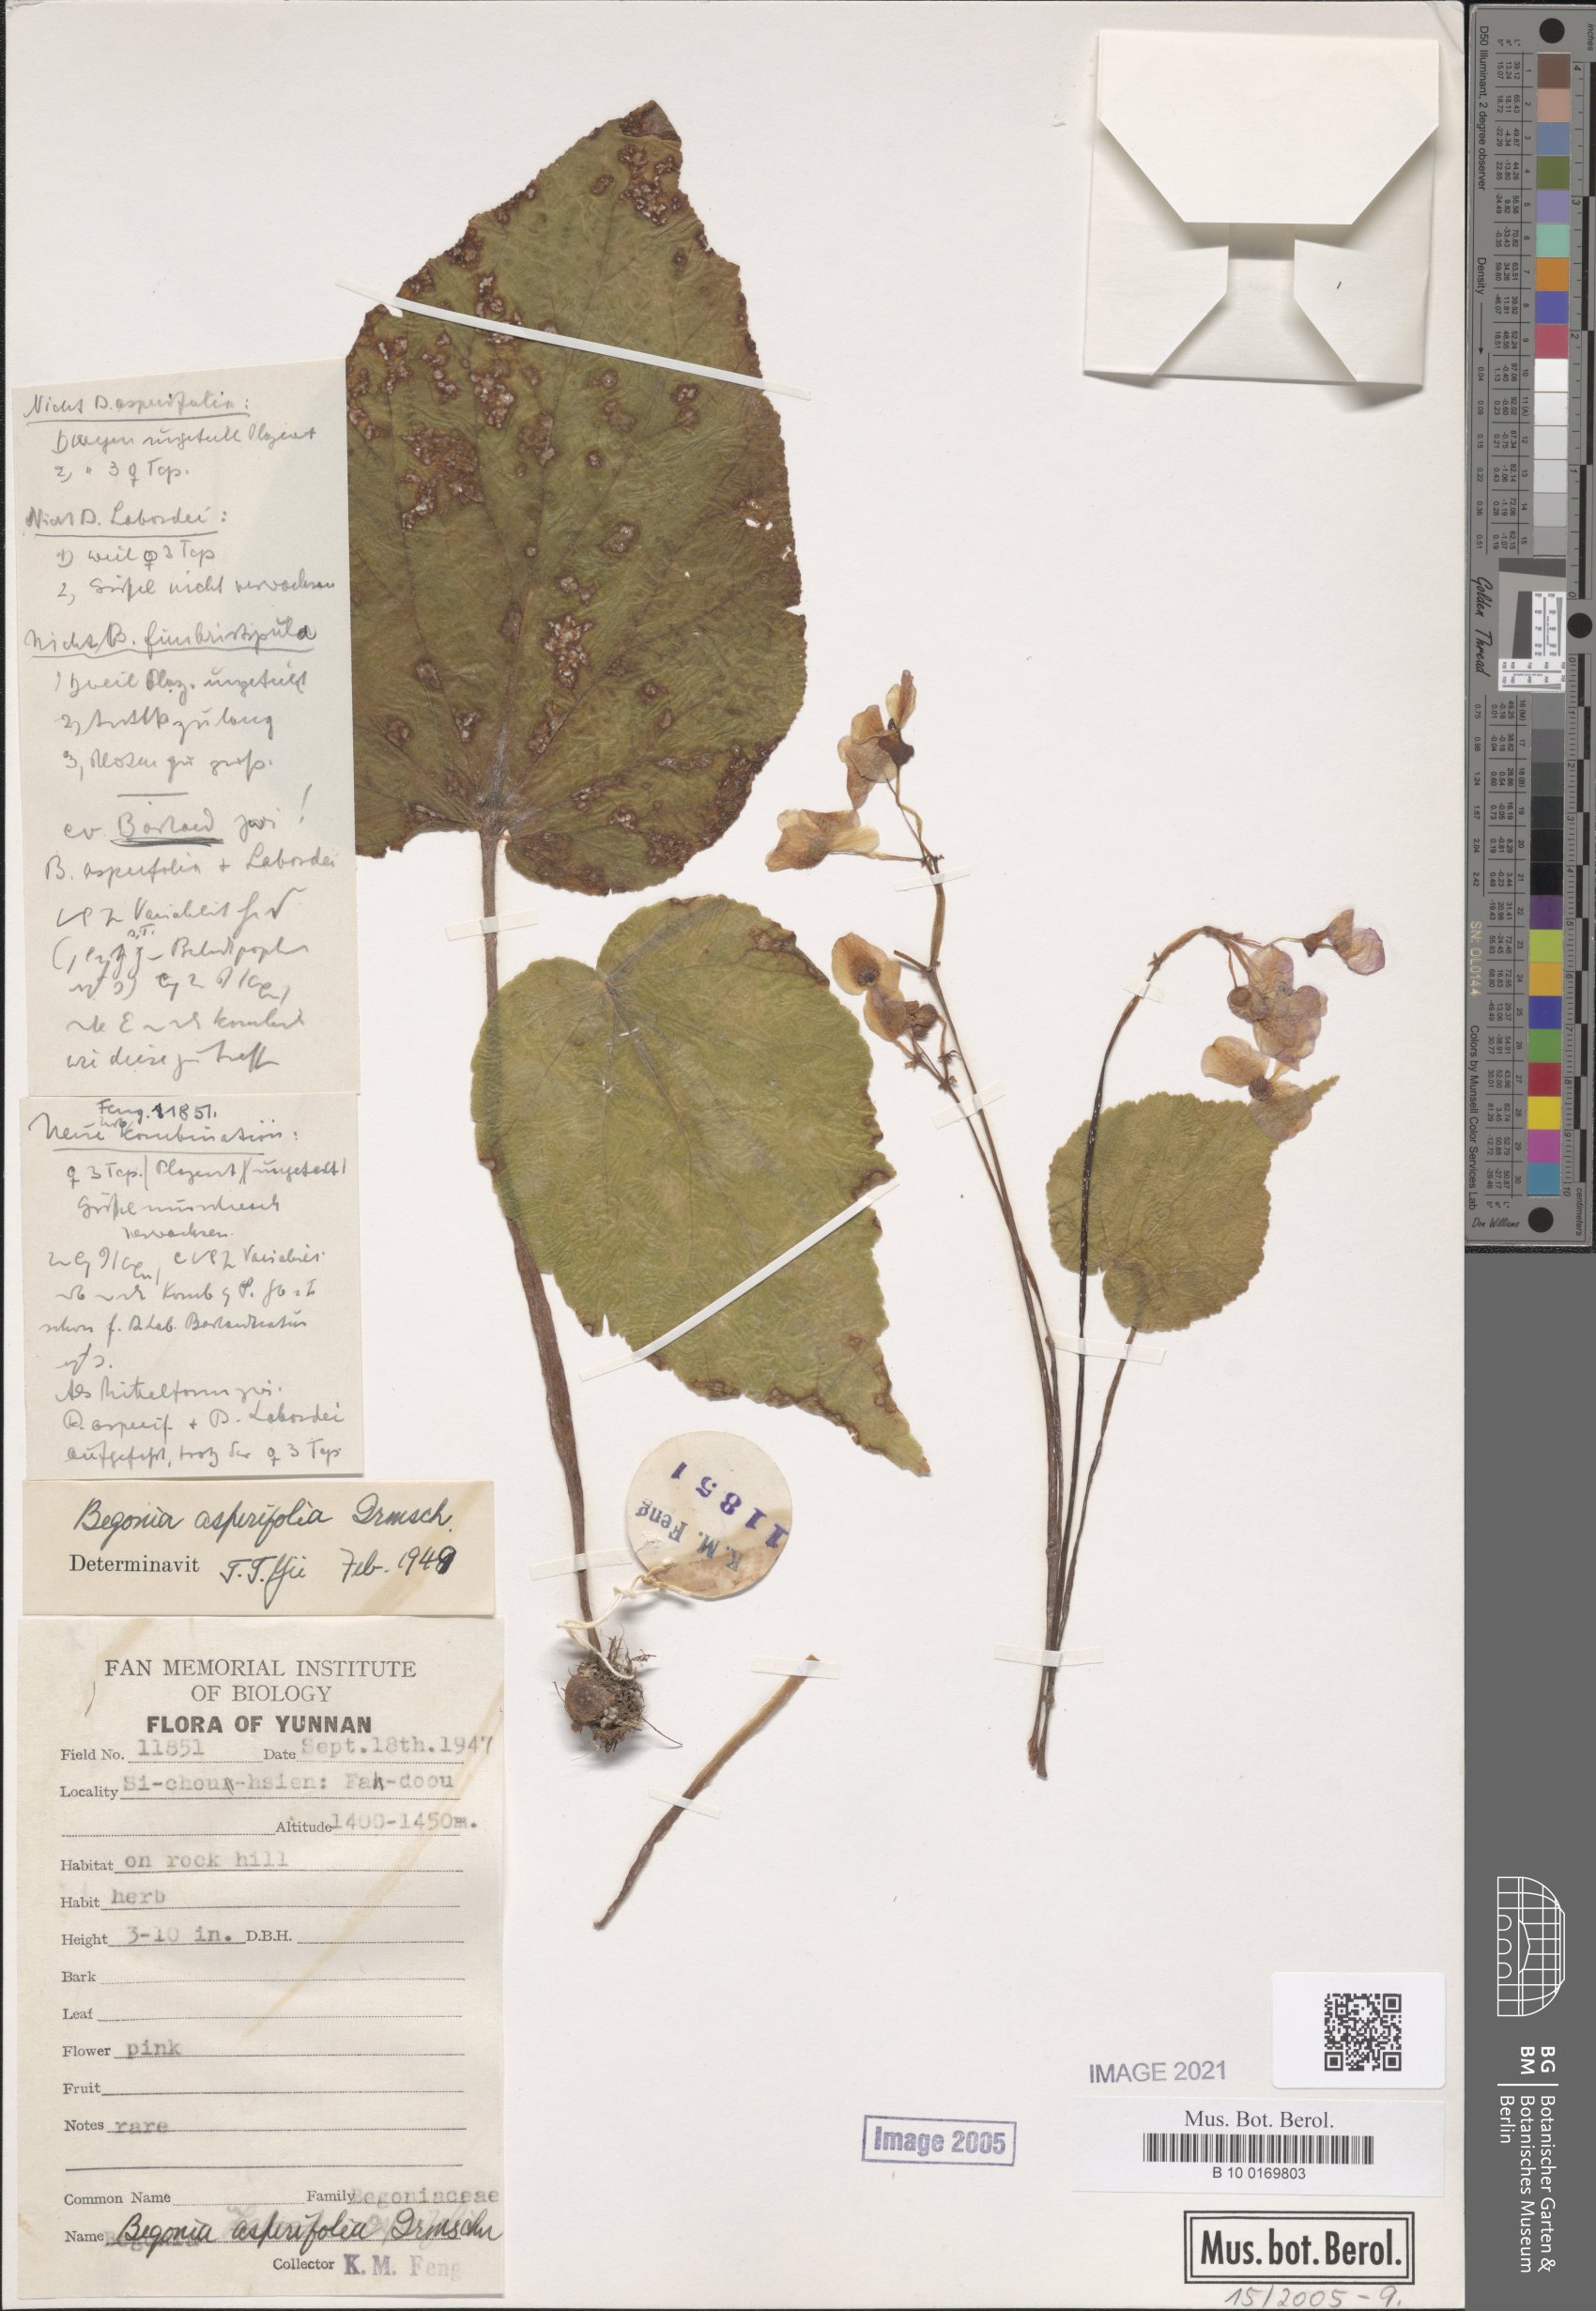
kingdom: Plantae
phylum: Tracheophyta
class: Magnoliopsida
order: Cucurbitales
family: Begoniaceae
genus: Begonia
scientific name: Begonia asperifolia
